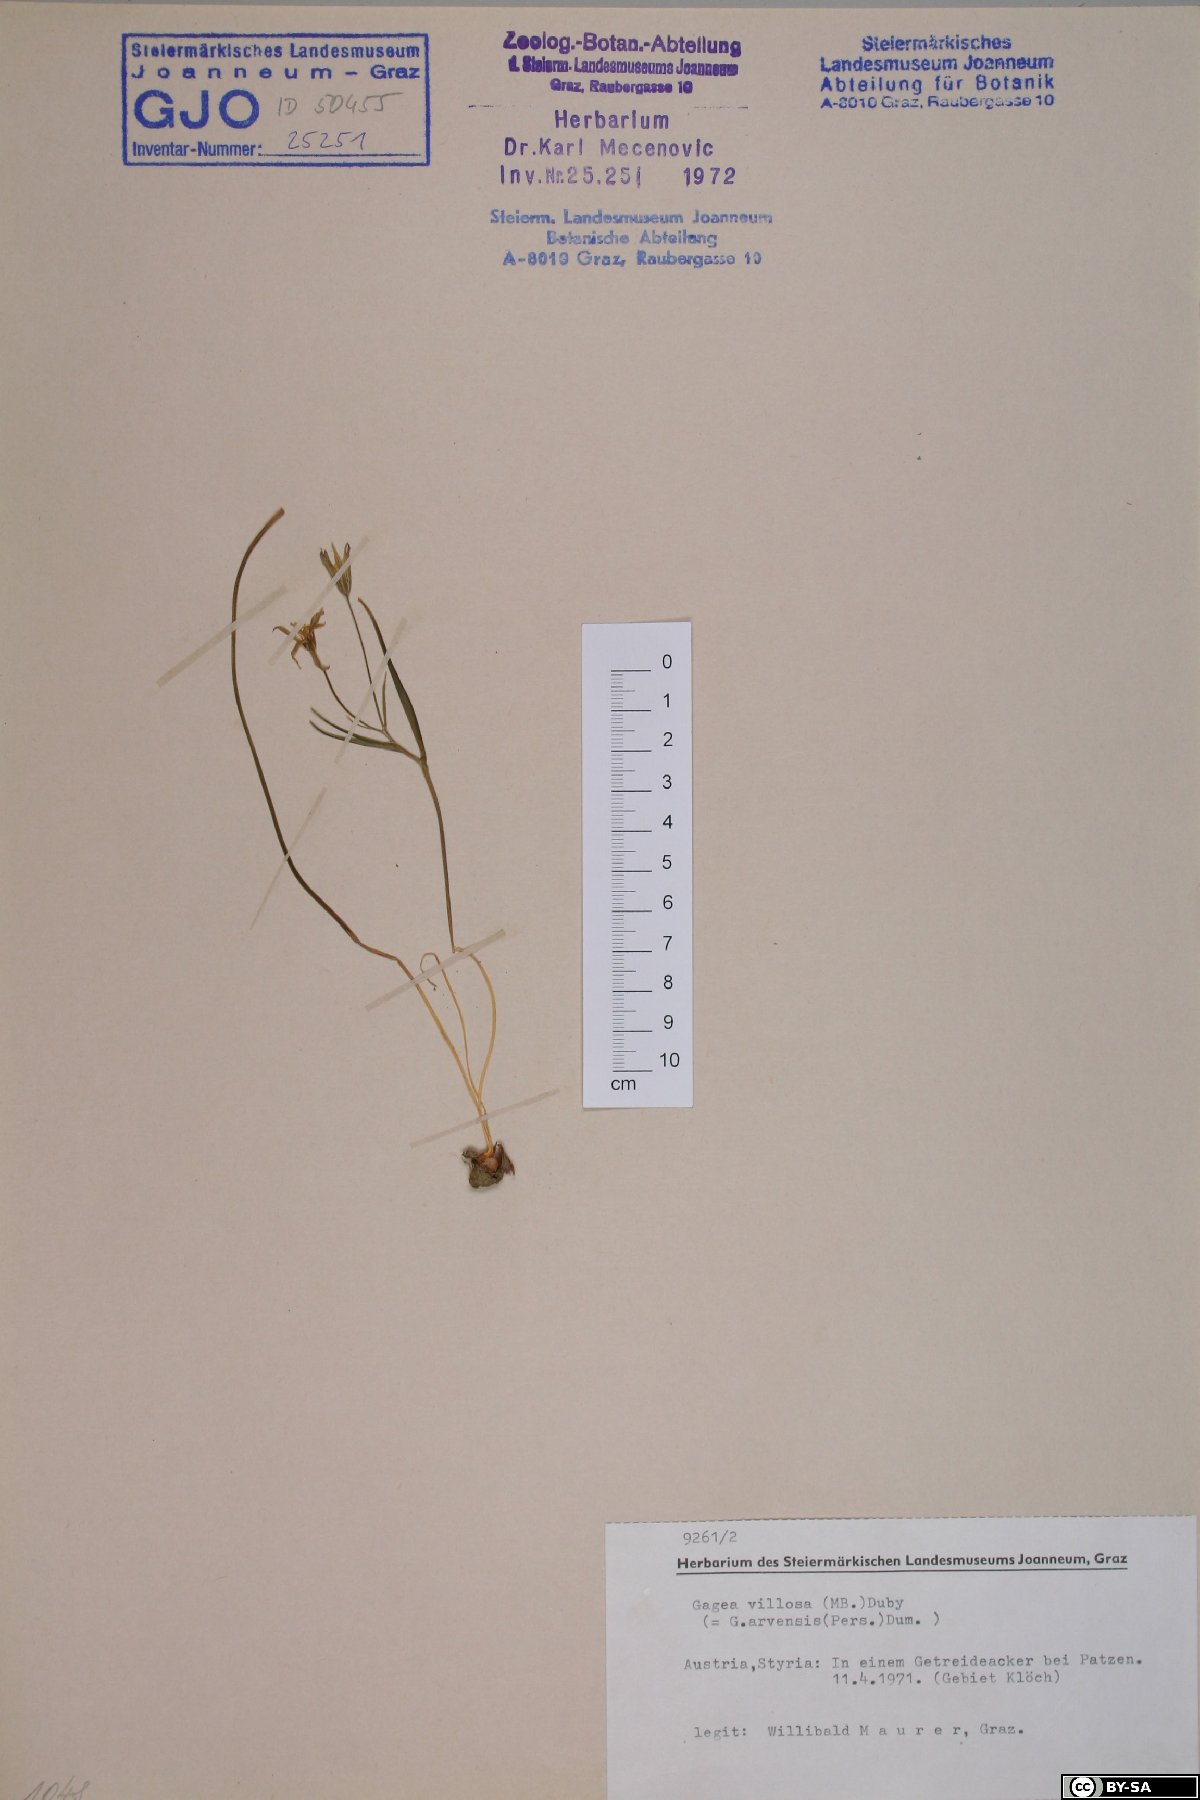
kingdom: Plantae
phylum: Tracheophyta
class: Liliopsida
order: Liliales
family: Liliaceae
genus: Gagea
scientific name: Gagea villosa
